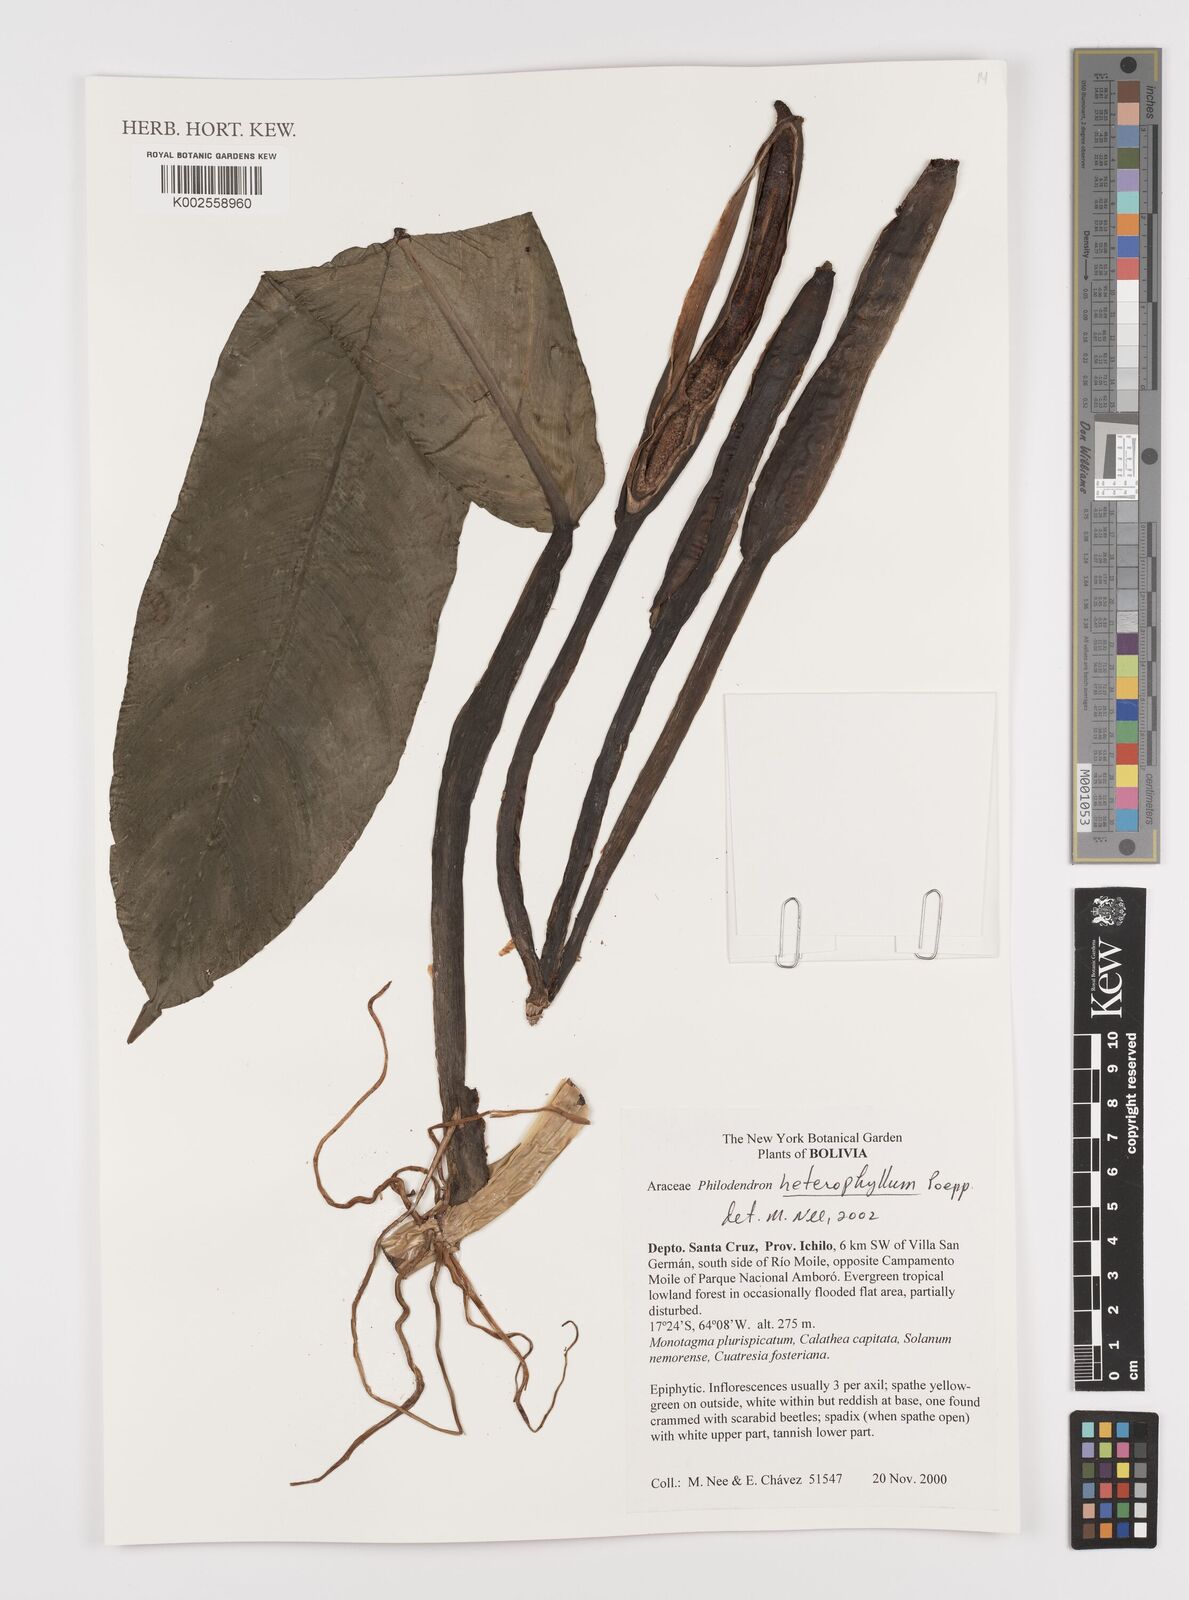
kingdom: Plantae
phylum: Tracheophyta
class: Liliopsida
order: Alismatales
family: Araceae
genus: Philodendron
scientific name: Philodendron heterophyllum
